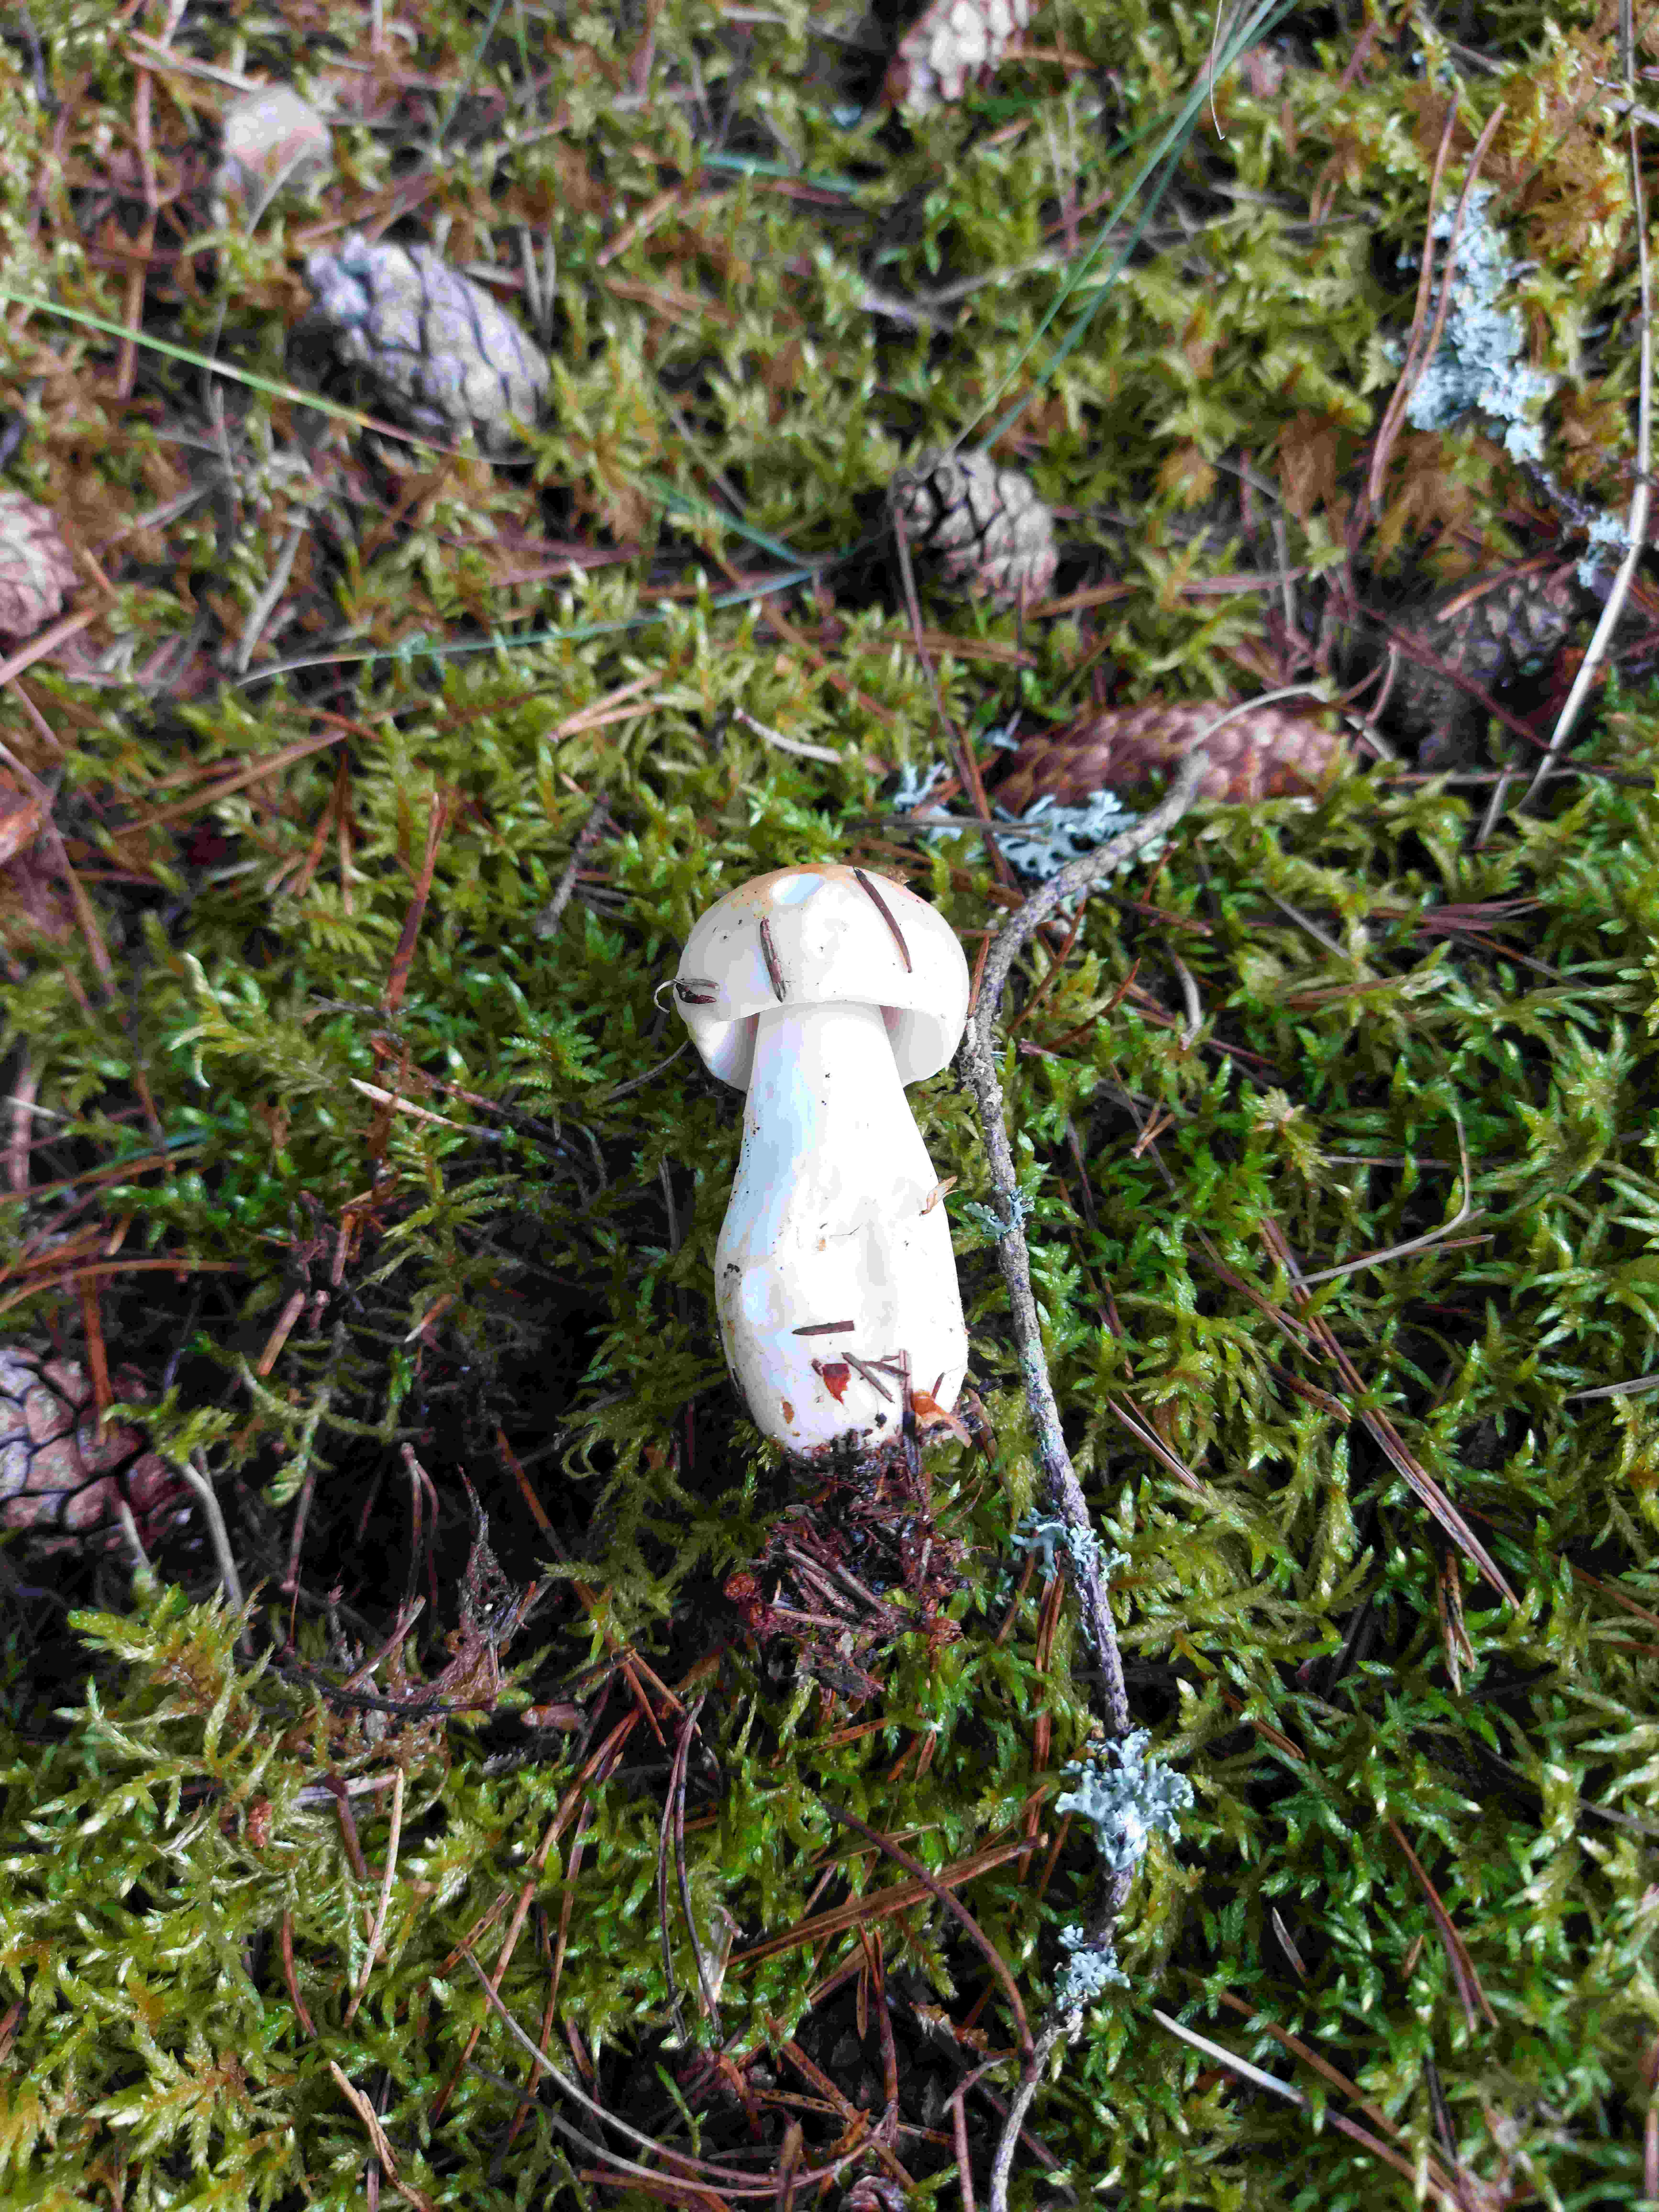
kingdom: Fungi
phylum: Basidiomycota
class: Agaricomycetes
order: Russulales
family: Russulaceae
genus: Russula
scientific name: Russula
